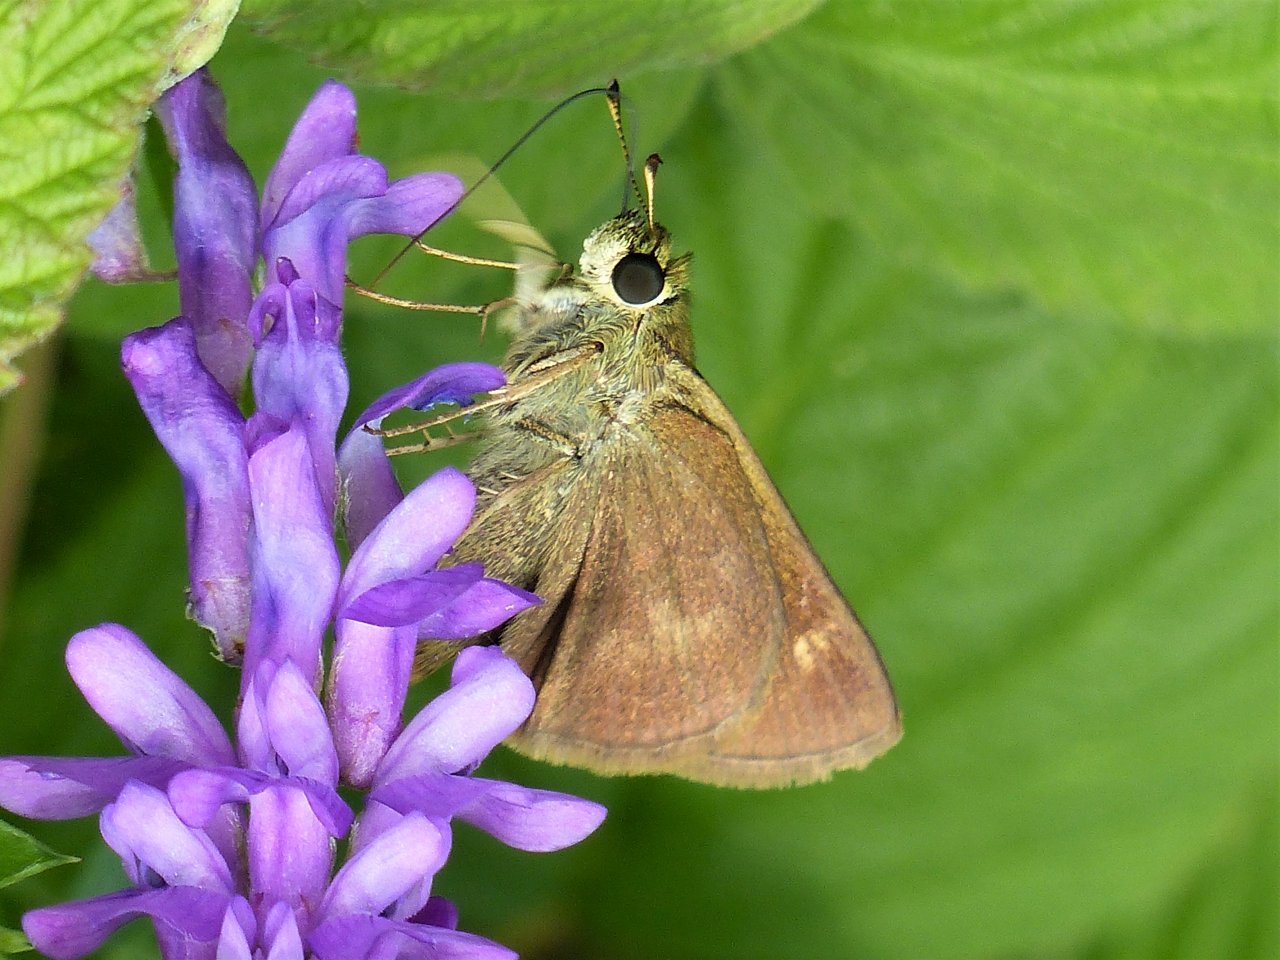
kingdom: Animalia
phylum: Arthropoda
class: Insecta
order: Lepidoptera
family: Hesperiidae
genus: Polites
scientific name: Polites egeremet
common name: Northern Broken-Dash
